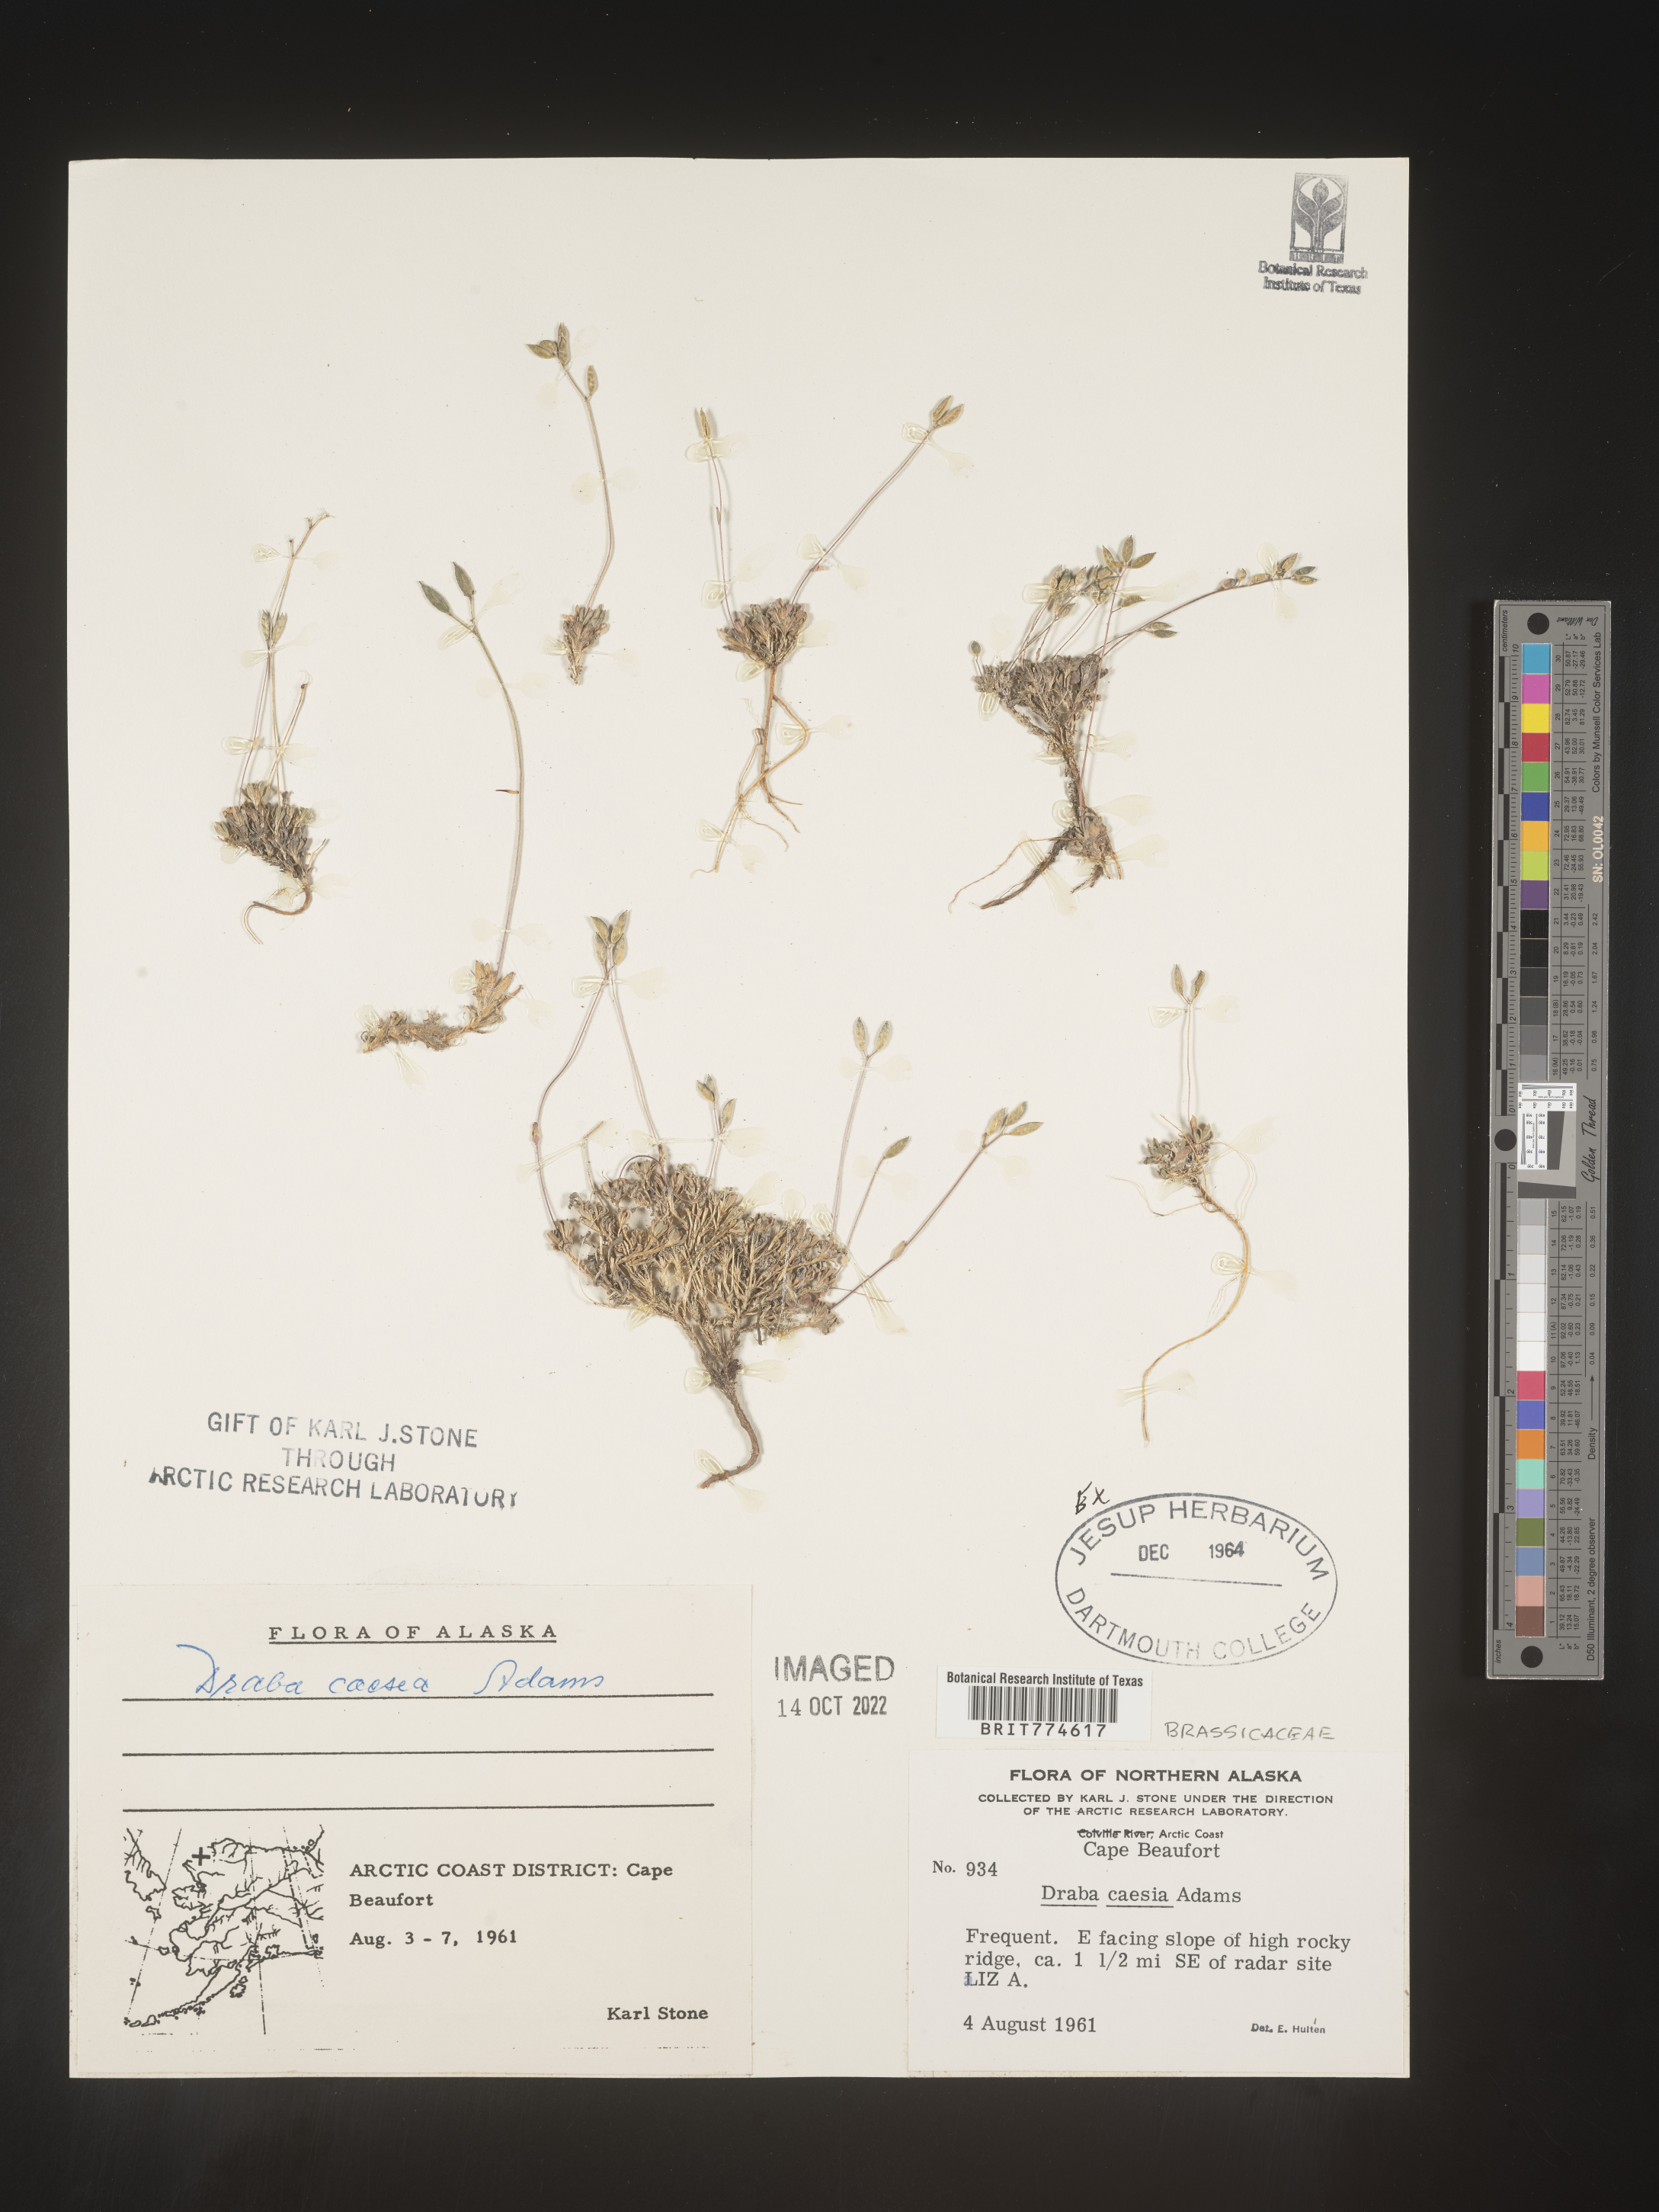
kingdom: Plantae
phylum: Tracheophyta
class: Magnoliopsida
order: Brassicales
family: Brassicaceae
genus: Draba
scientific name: Draba
